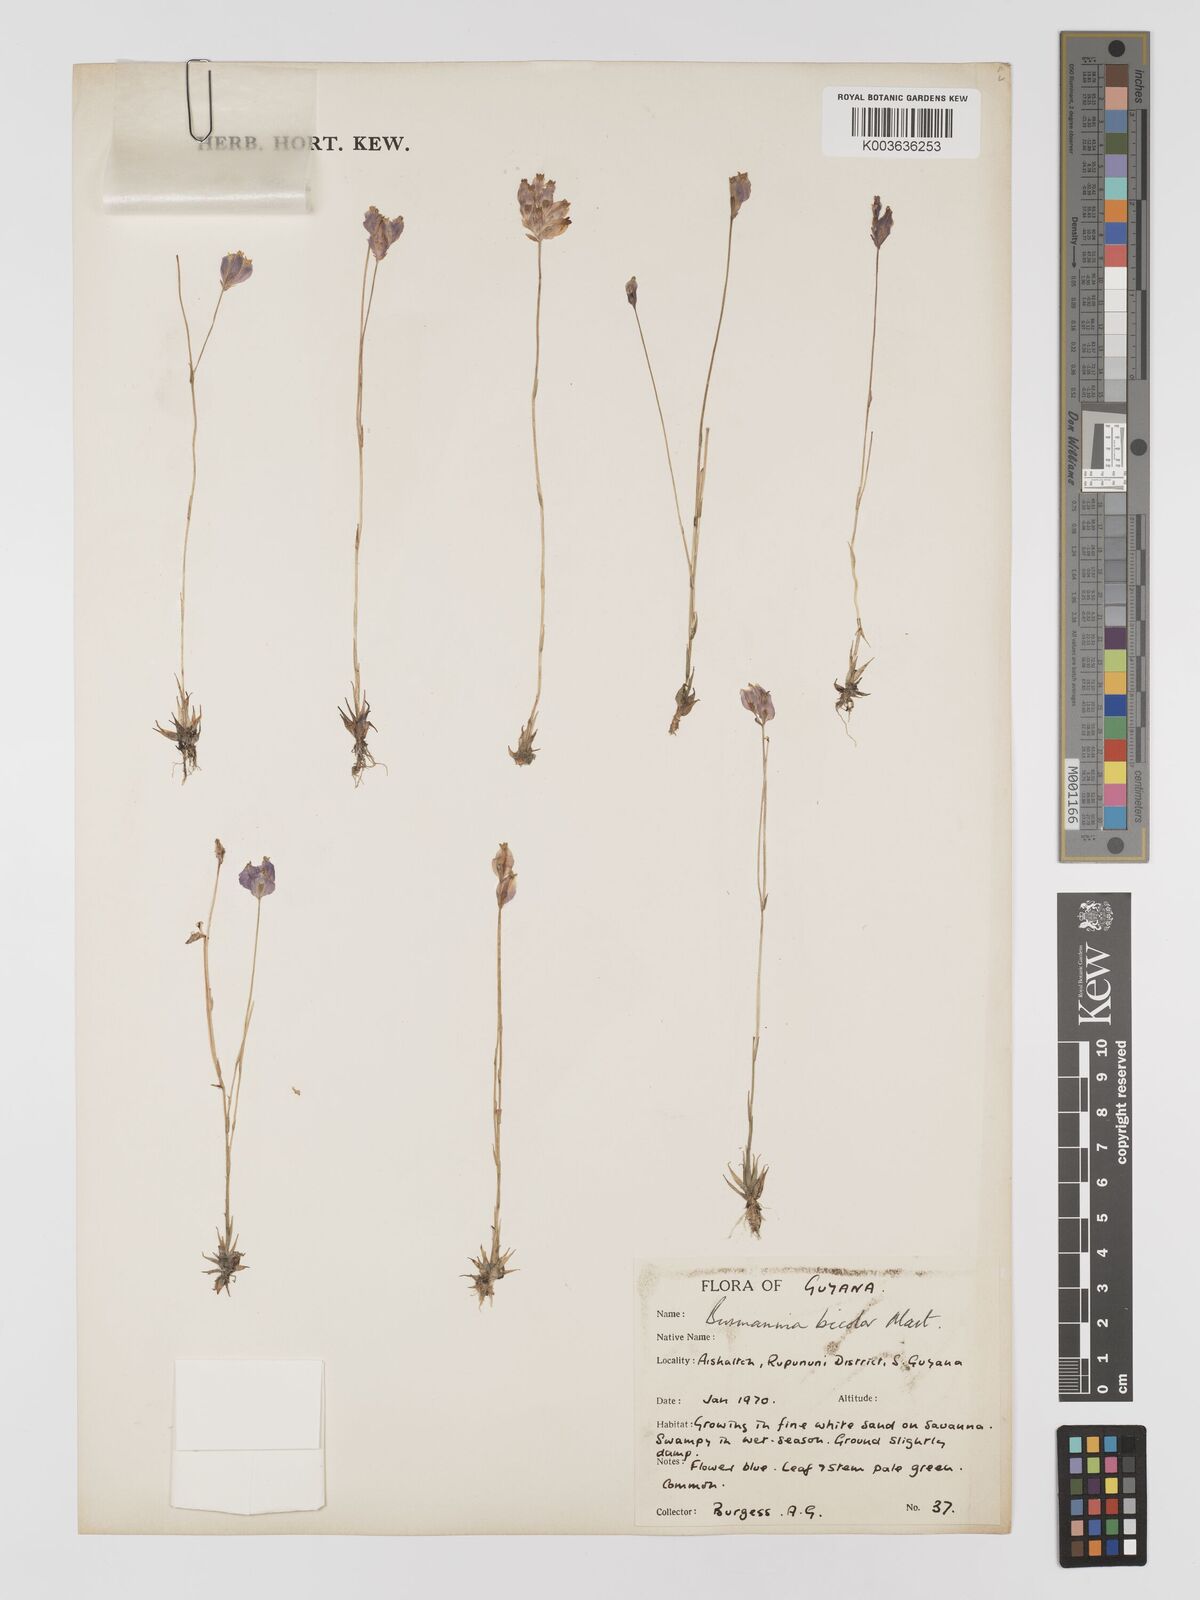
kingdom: Plantae
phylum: Tracheophyta
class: Liliopsida
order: Dioscoreales
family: Burmanniaceae
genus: Burmannia
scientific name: Burmannia bicolor
